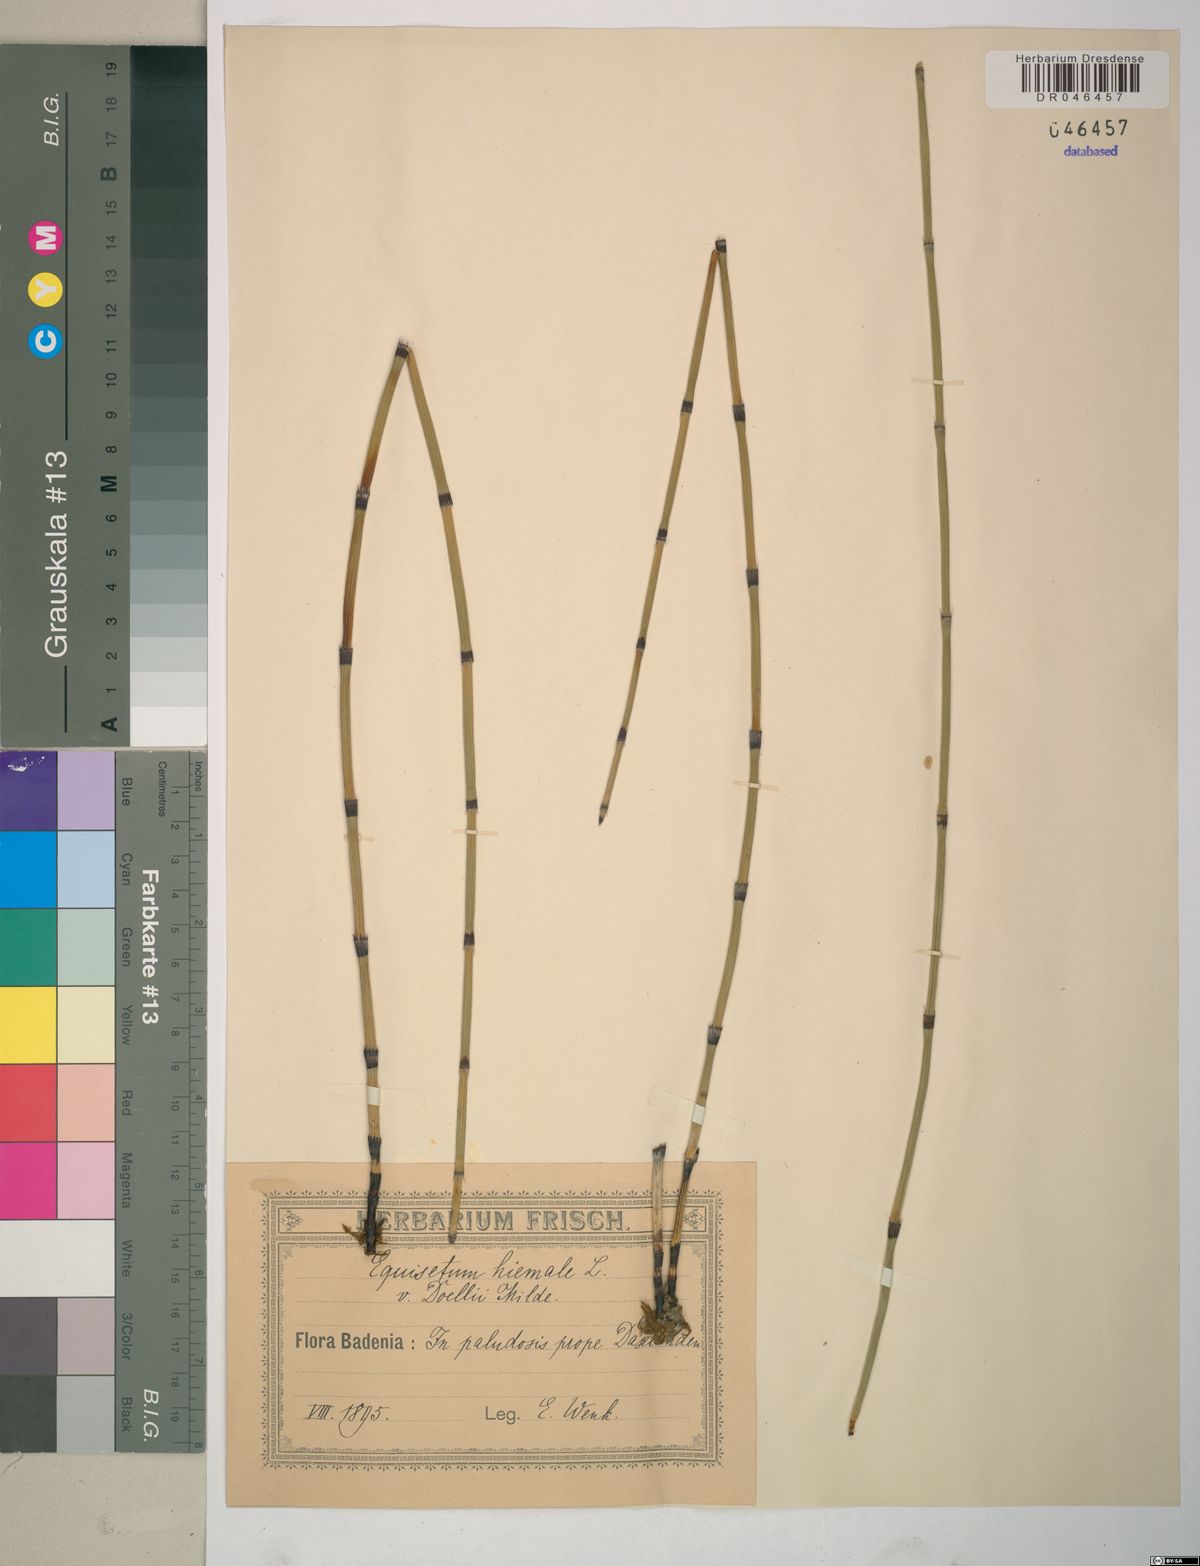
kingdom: Plantae
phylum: Tracheophyta
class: Polypodiopsida
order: Equisetales
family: Equisetaceae
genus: Equisetum
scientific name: Equisetum trachyodon
